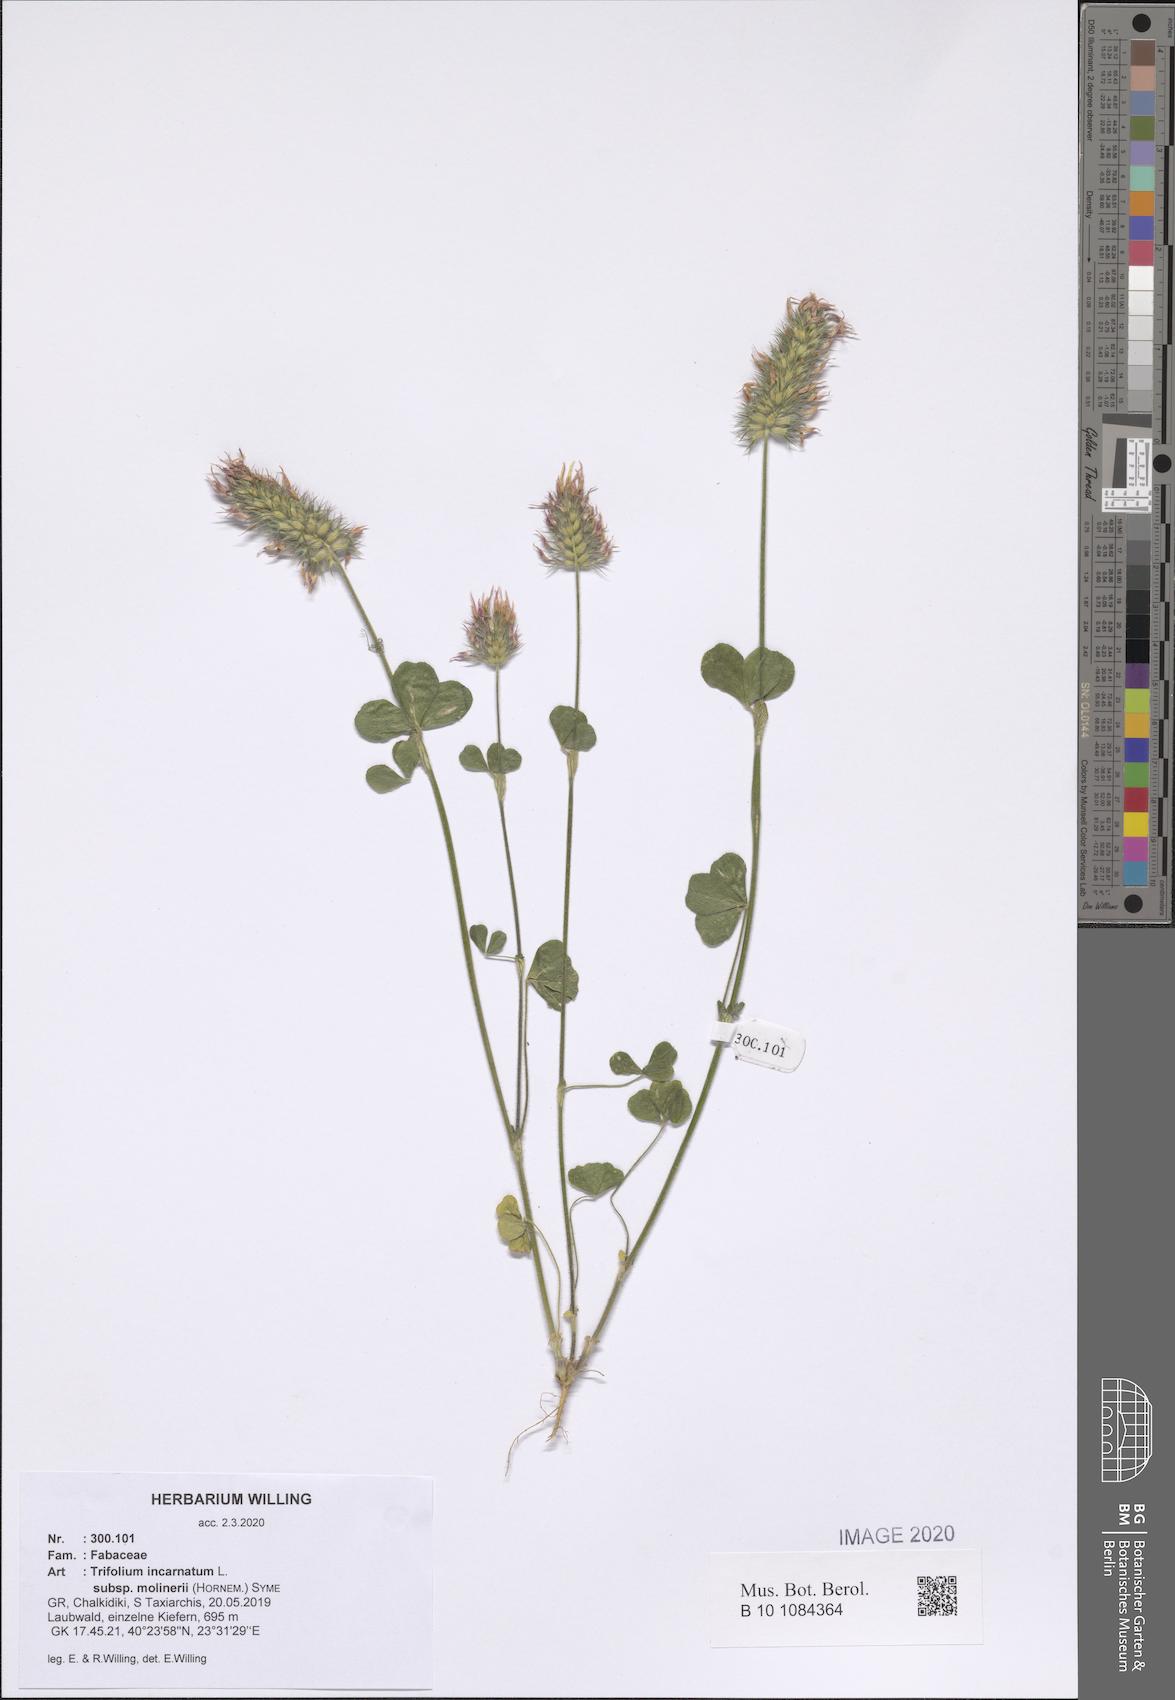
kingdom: Plantae
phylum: Tracheophyta
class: Magnoliopsida
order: Fabales
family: Fabaceae
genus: Trifolium
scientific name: Trifolium incarnatum
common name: Crimson clover
